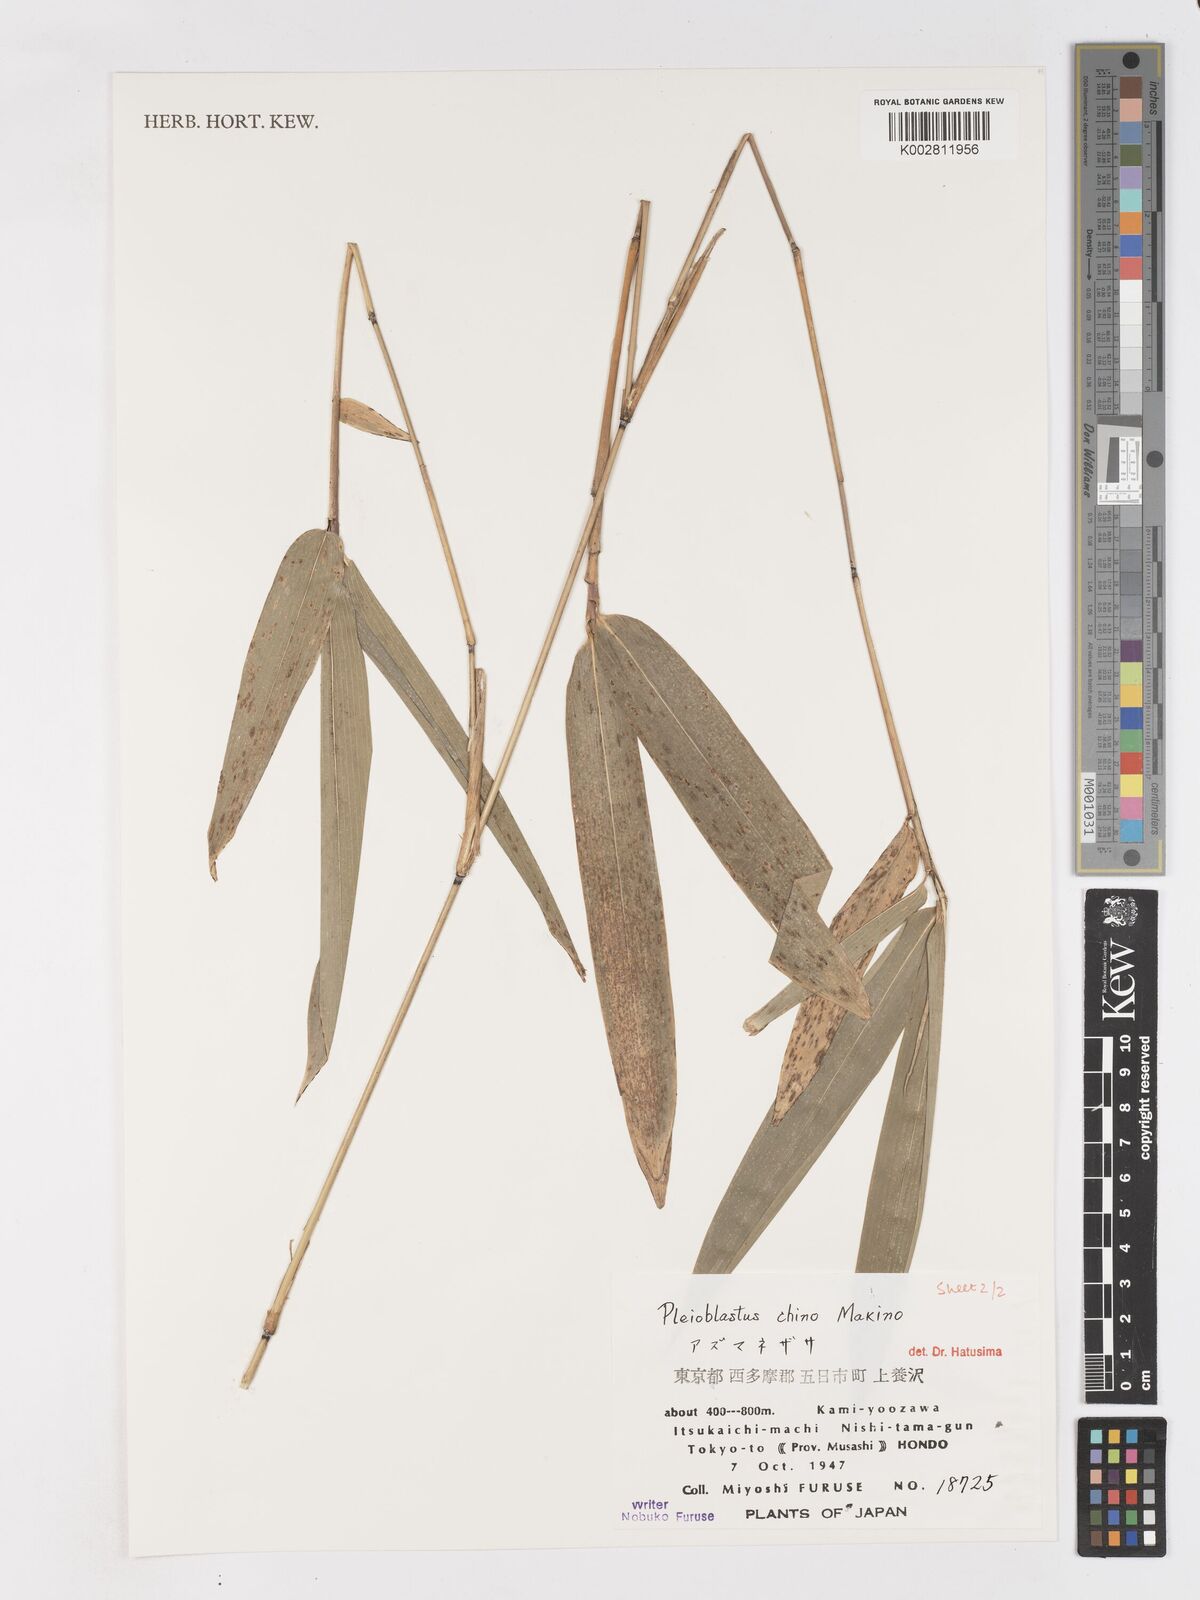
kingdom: Plantae
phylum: Tracheophyta
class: Liliopsida
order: Poales
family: Poaceae
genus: Pleioblastus
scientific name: Pleioblastus argenteostriatus
